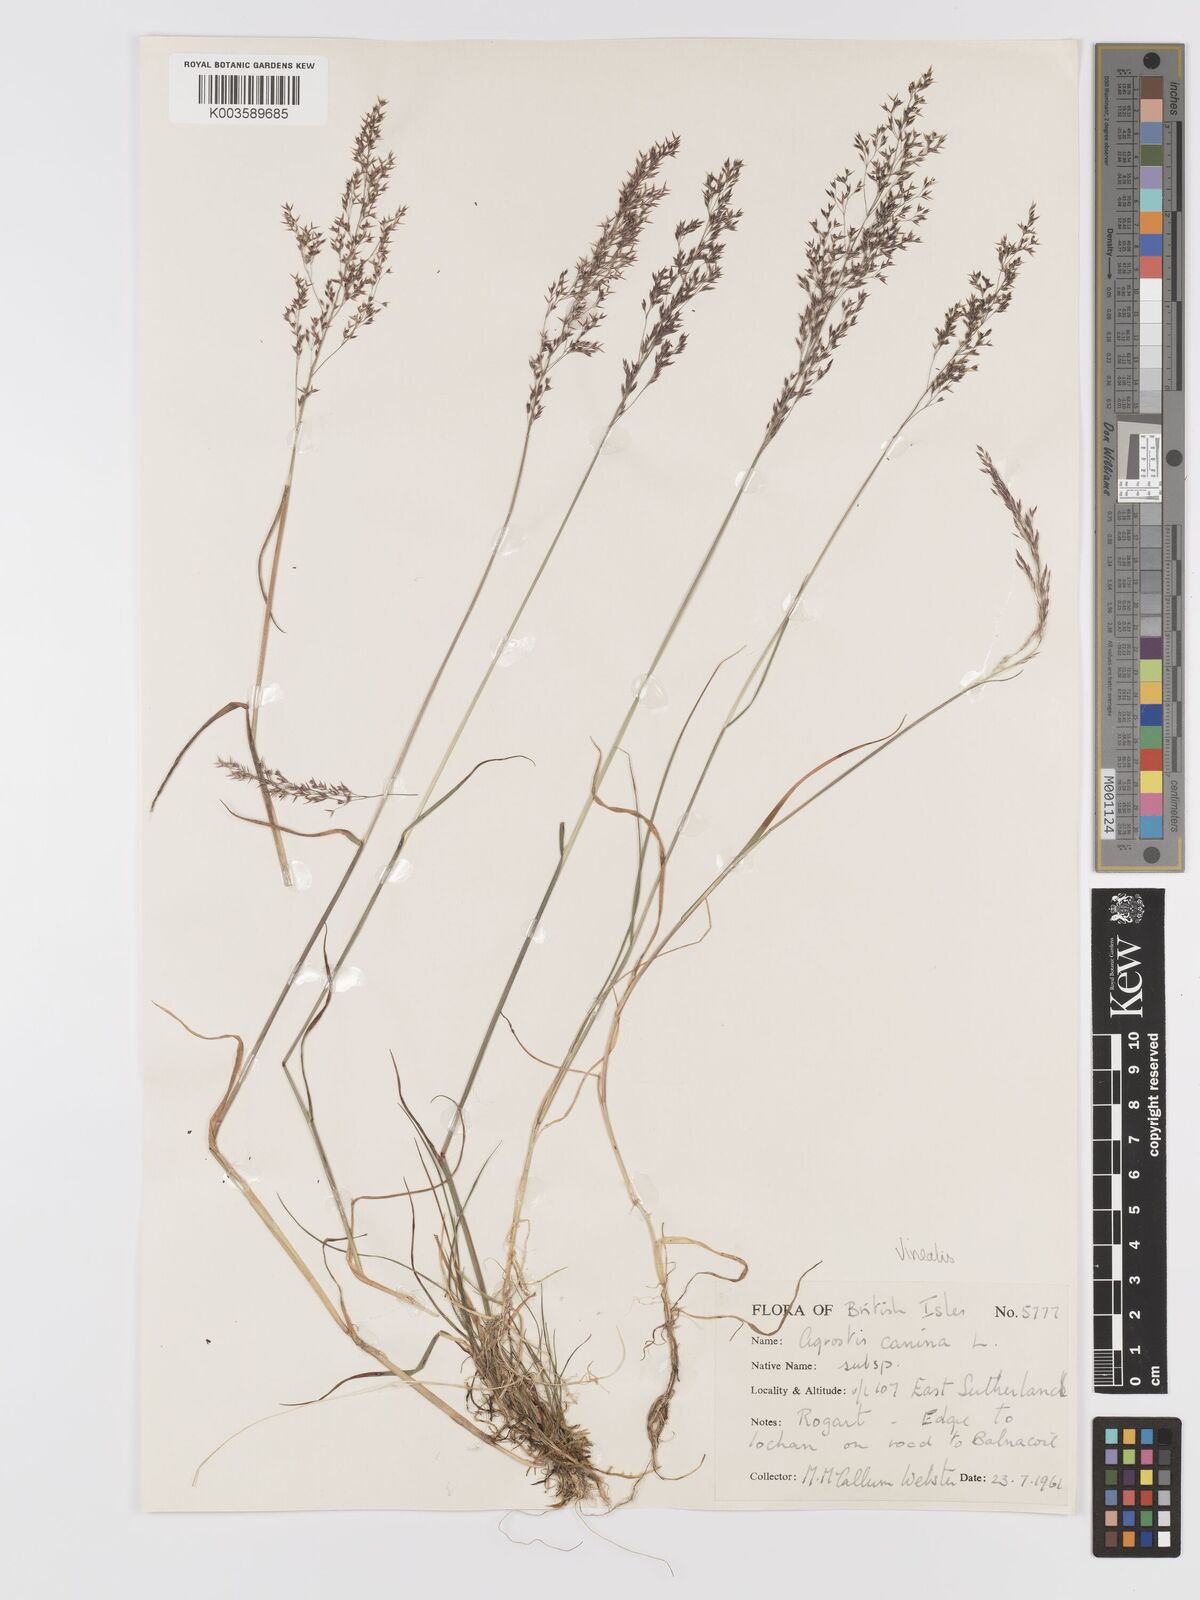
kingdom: Plantae
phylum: Tracheophyta
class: Liliopsida
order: Poales
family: Poaceae
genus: Agrostis
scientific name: Agrostis
